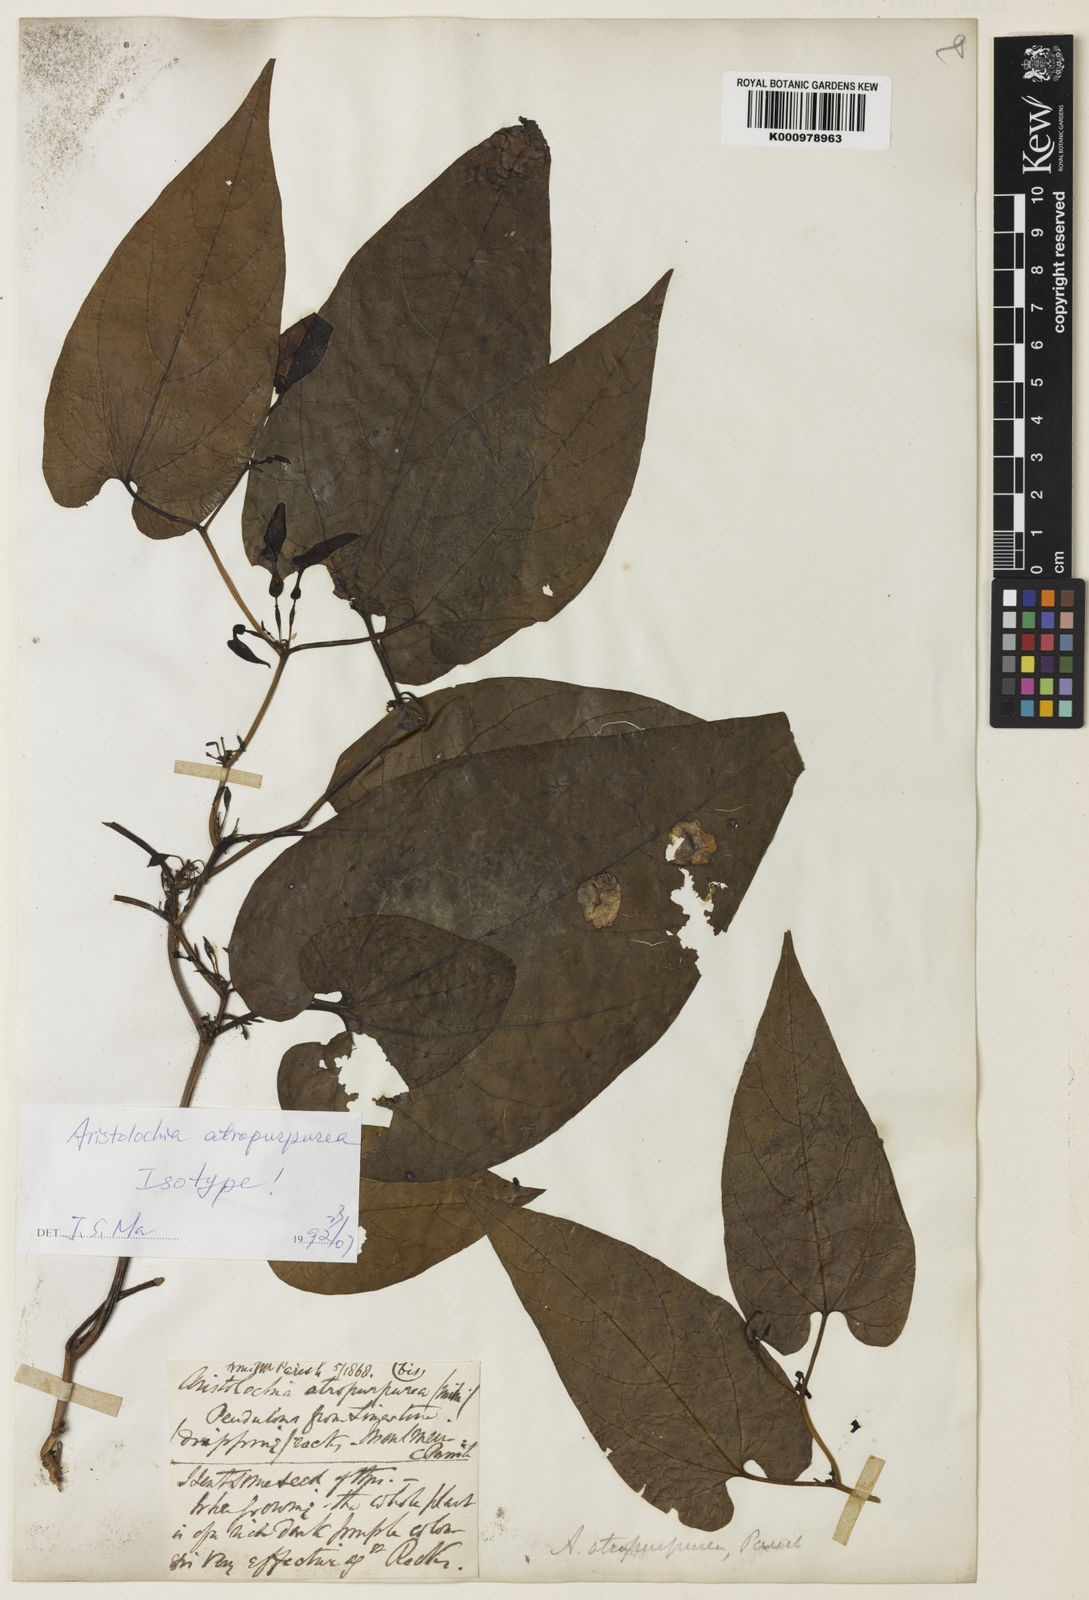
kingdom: Plantae
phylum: Tracheophyta
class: Magnoliopsida
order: Piperales
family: Aristolochiaceae
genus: Aristolochia
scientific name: Aristolochia atropurpurea
